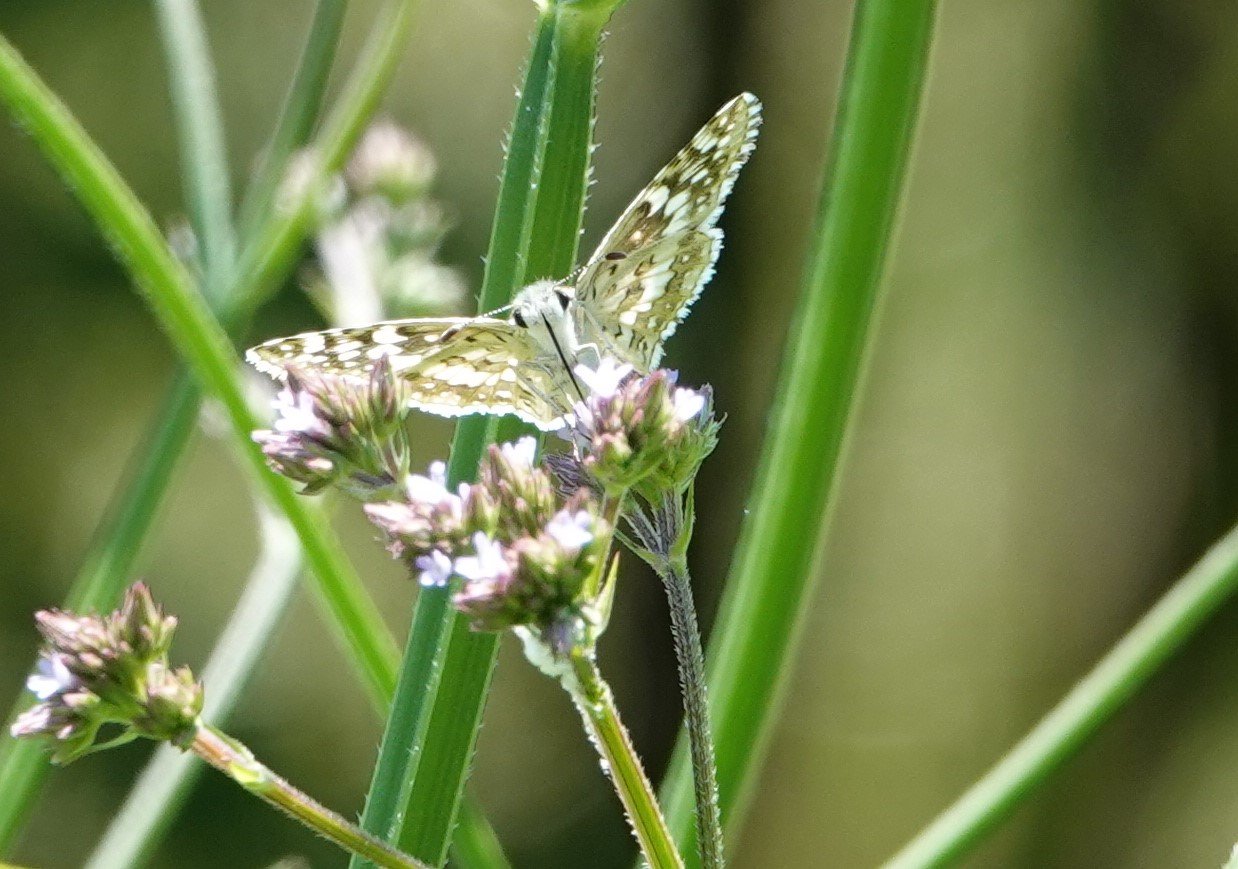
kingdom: Animalia
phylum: Arthropoda
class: Insecta
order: Lepidoptera
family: Hesperiidae
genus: Pyrgus
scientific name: Pyrgus communis
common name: White Checkered-Skipper
